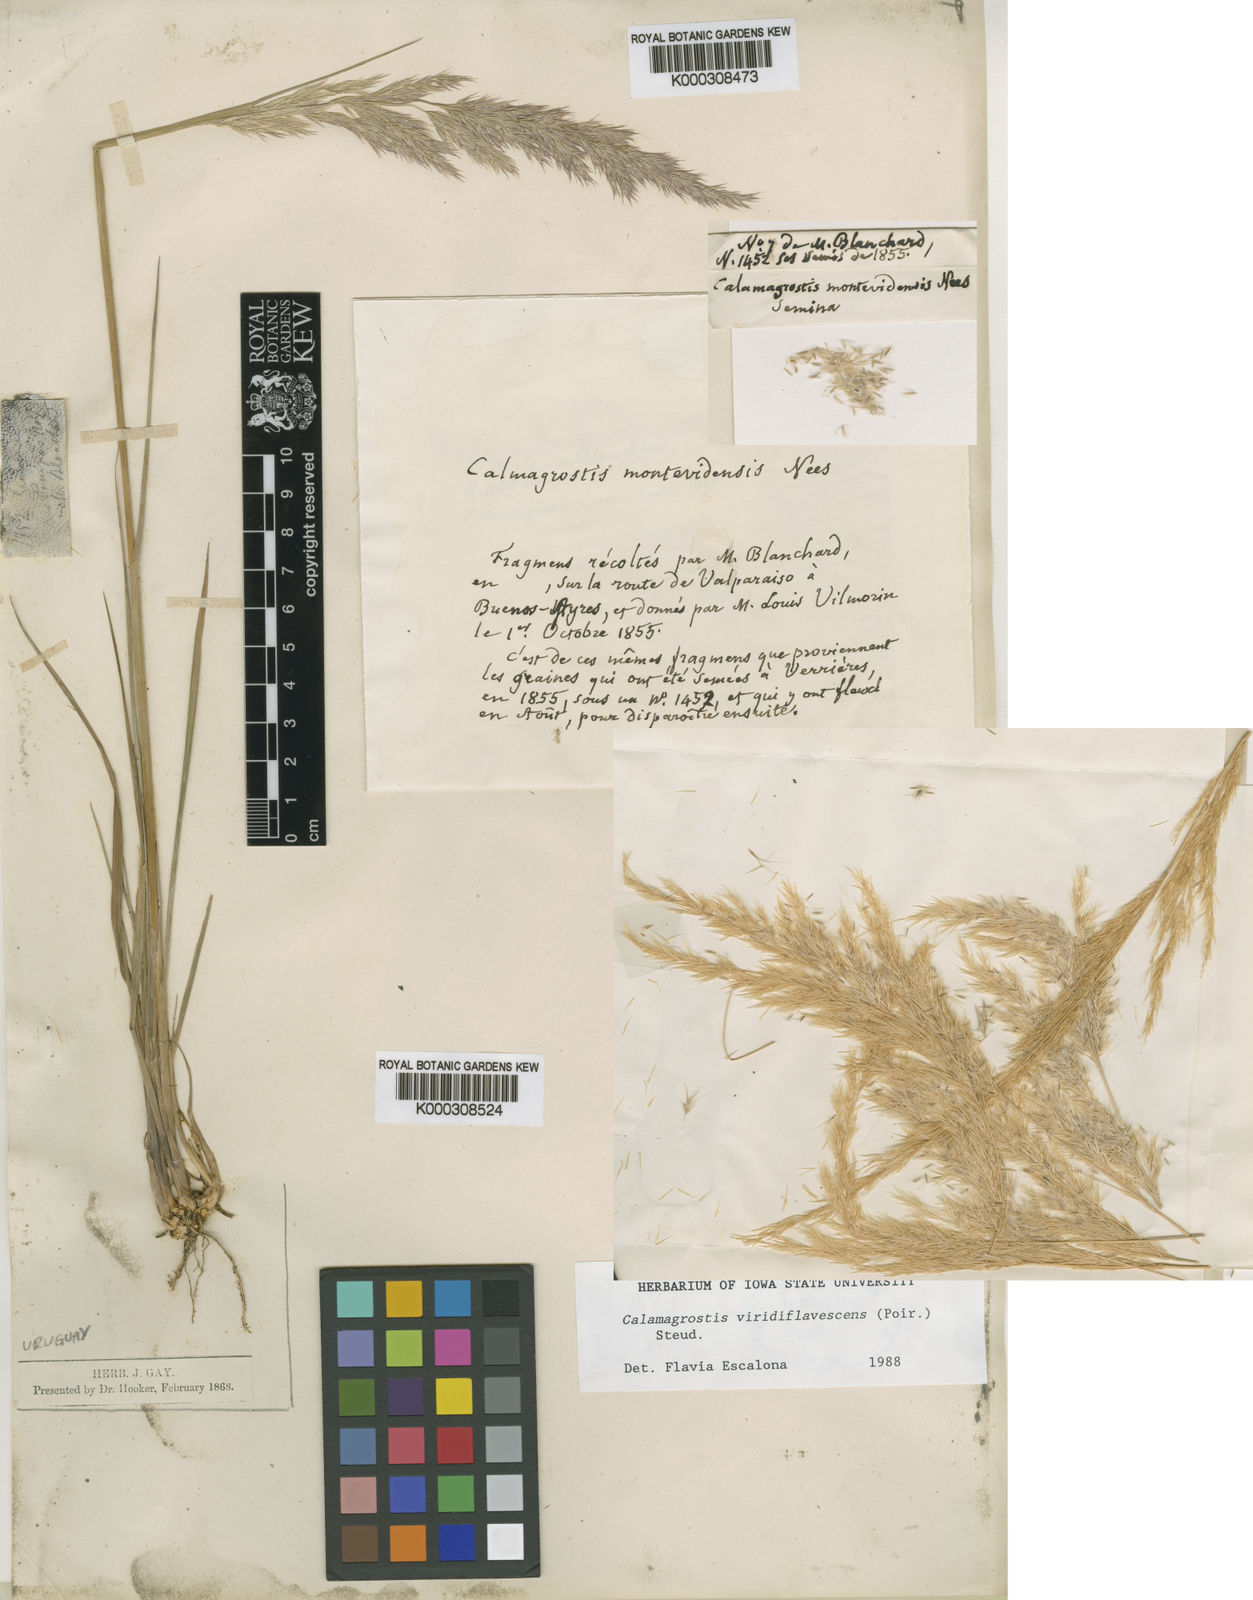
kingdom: Plantae
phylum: Tracheophyta
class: Liliopsida
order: Poales
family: Poaceae
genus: Cinnagrostis
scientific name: Cinnagrostis viridiflavescens
